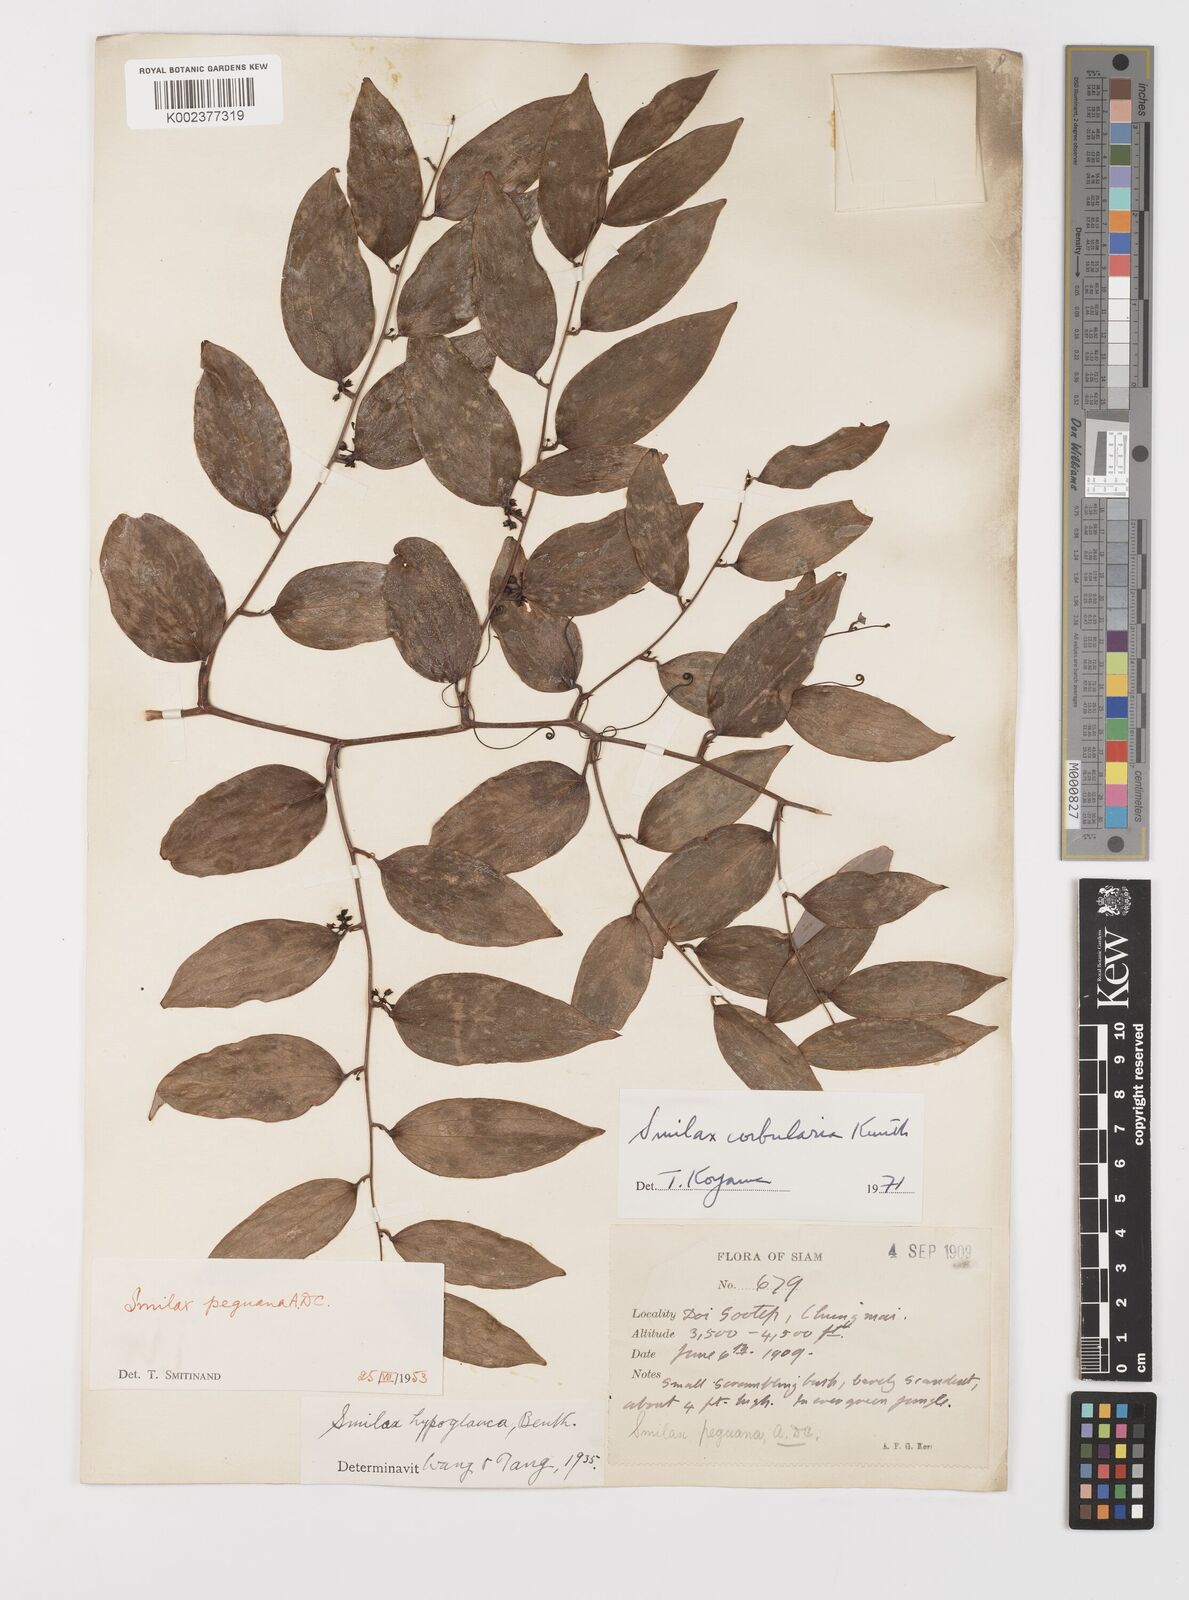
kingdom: Plantae
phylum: Tracheophyta
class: Liliopsida
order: Liliales
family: Smilacaceae
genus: Smilax
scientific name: Smilax corbularia
